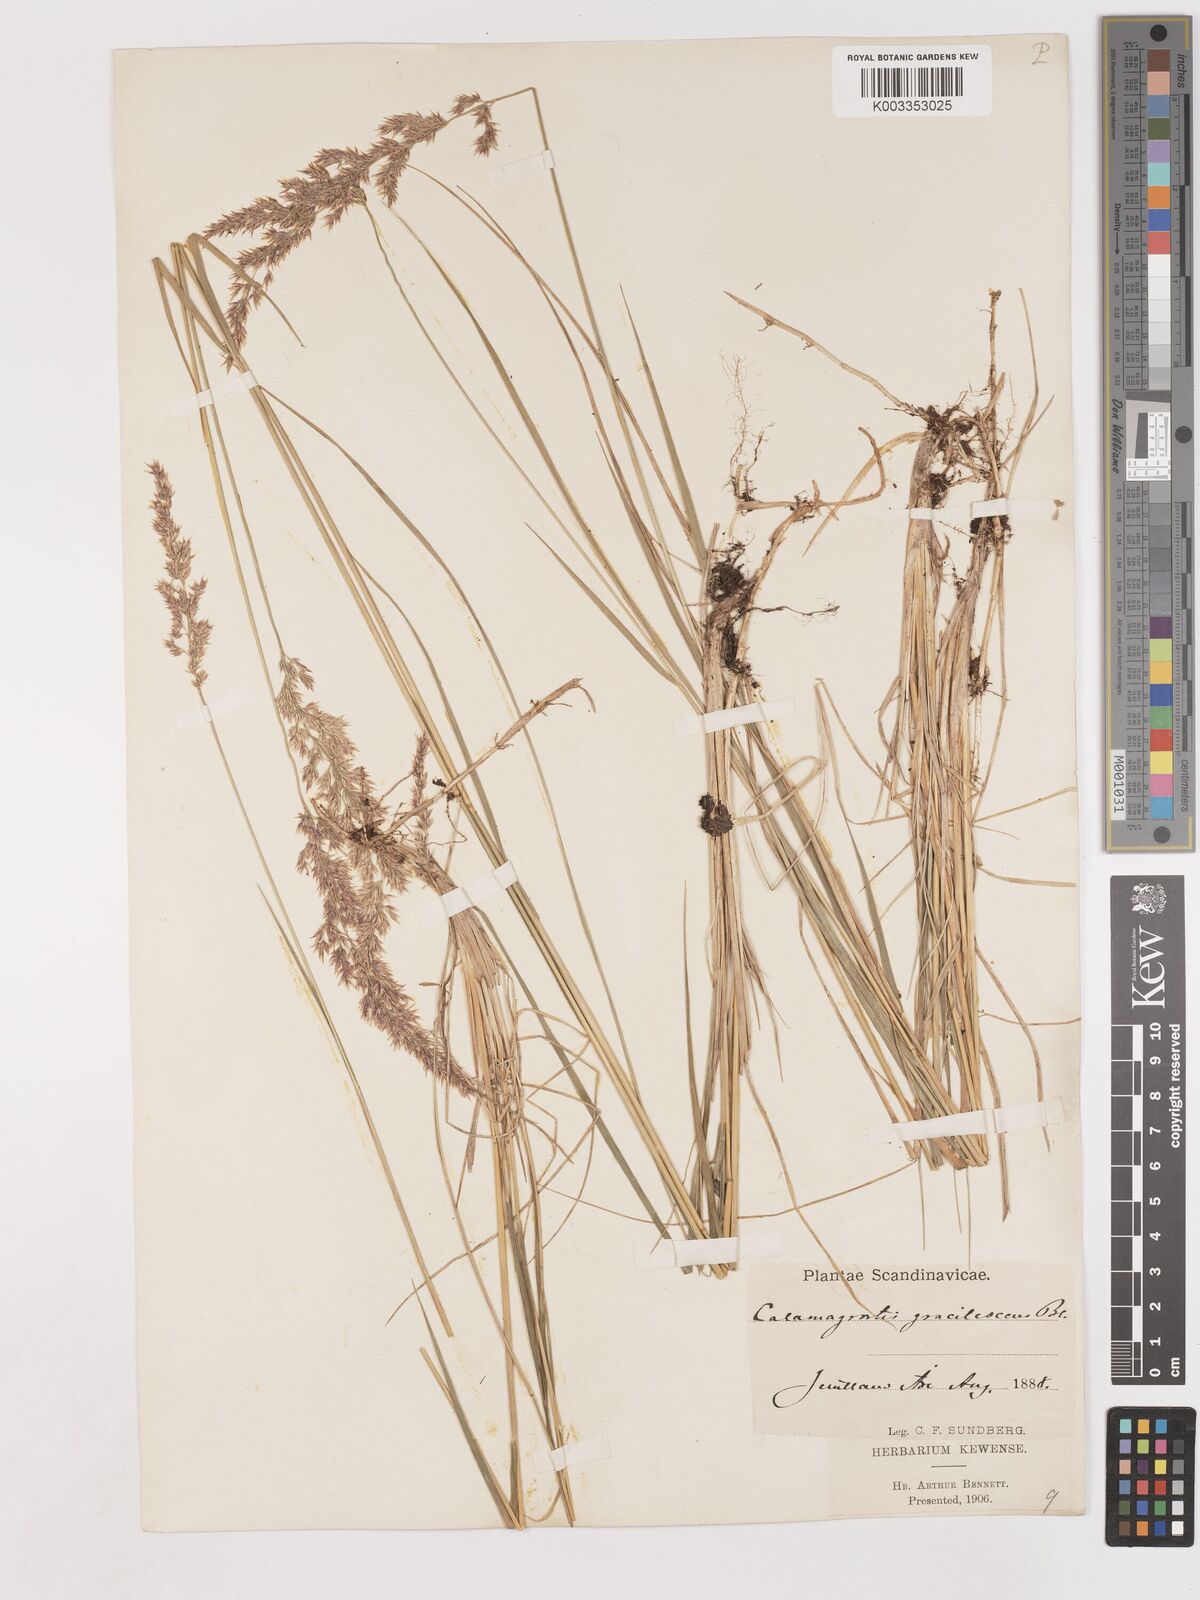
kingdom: Plantae
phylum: Tracheophyta
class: Liliopsida
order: Poales
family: Poaceae
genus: Calamagrostis
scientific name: Calamagrostis canescens
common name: Purple small-reed
